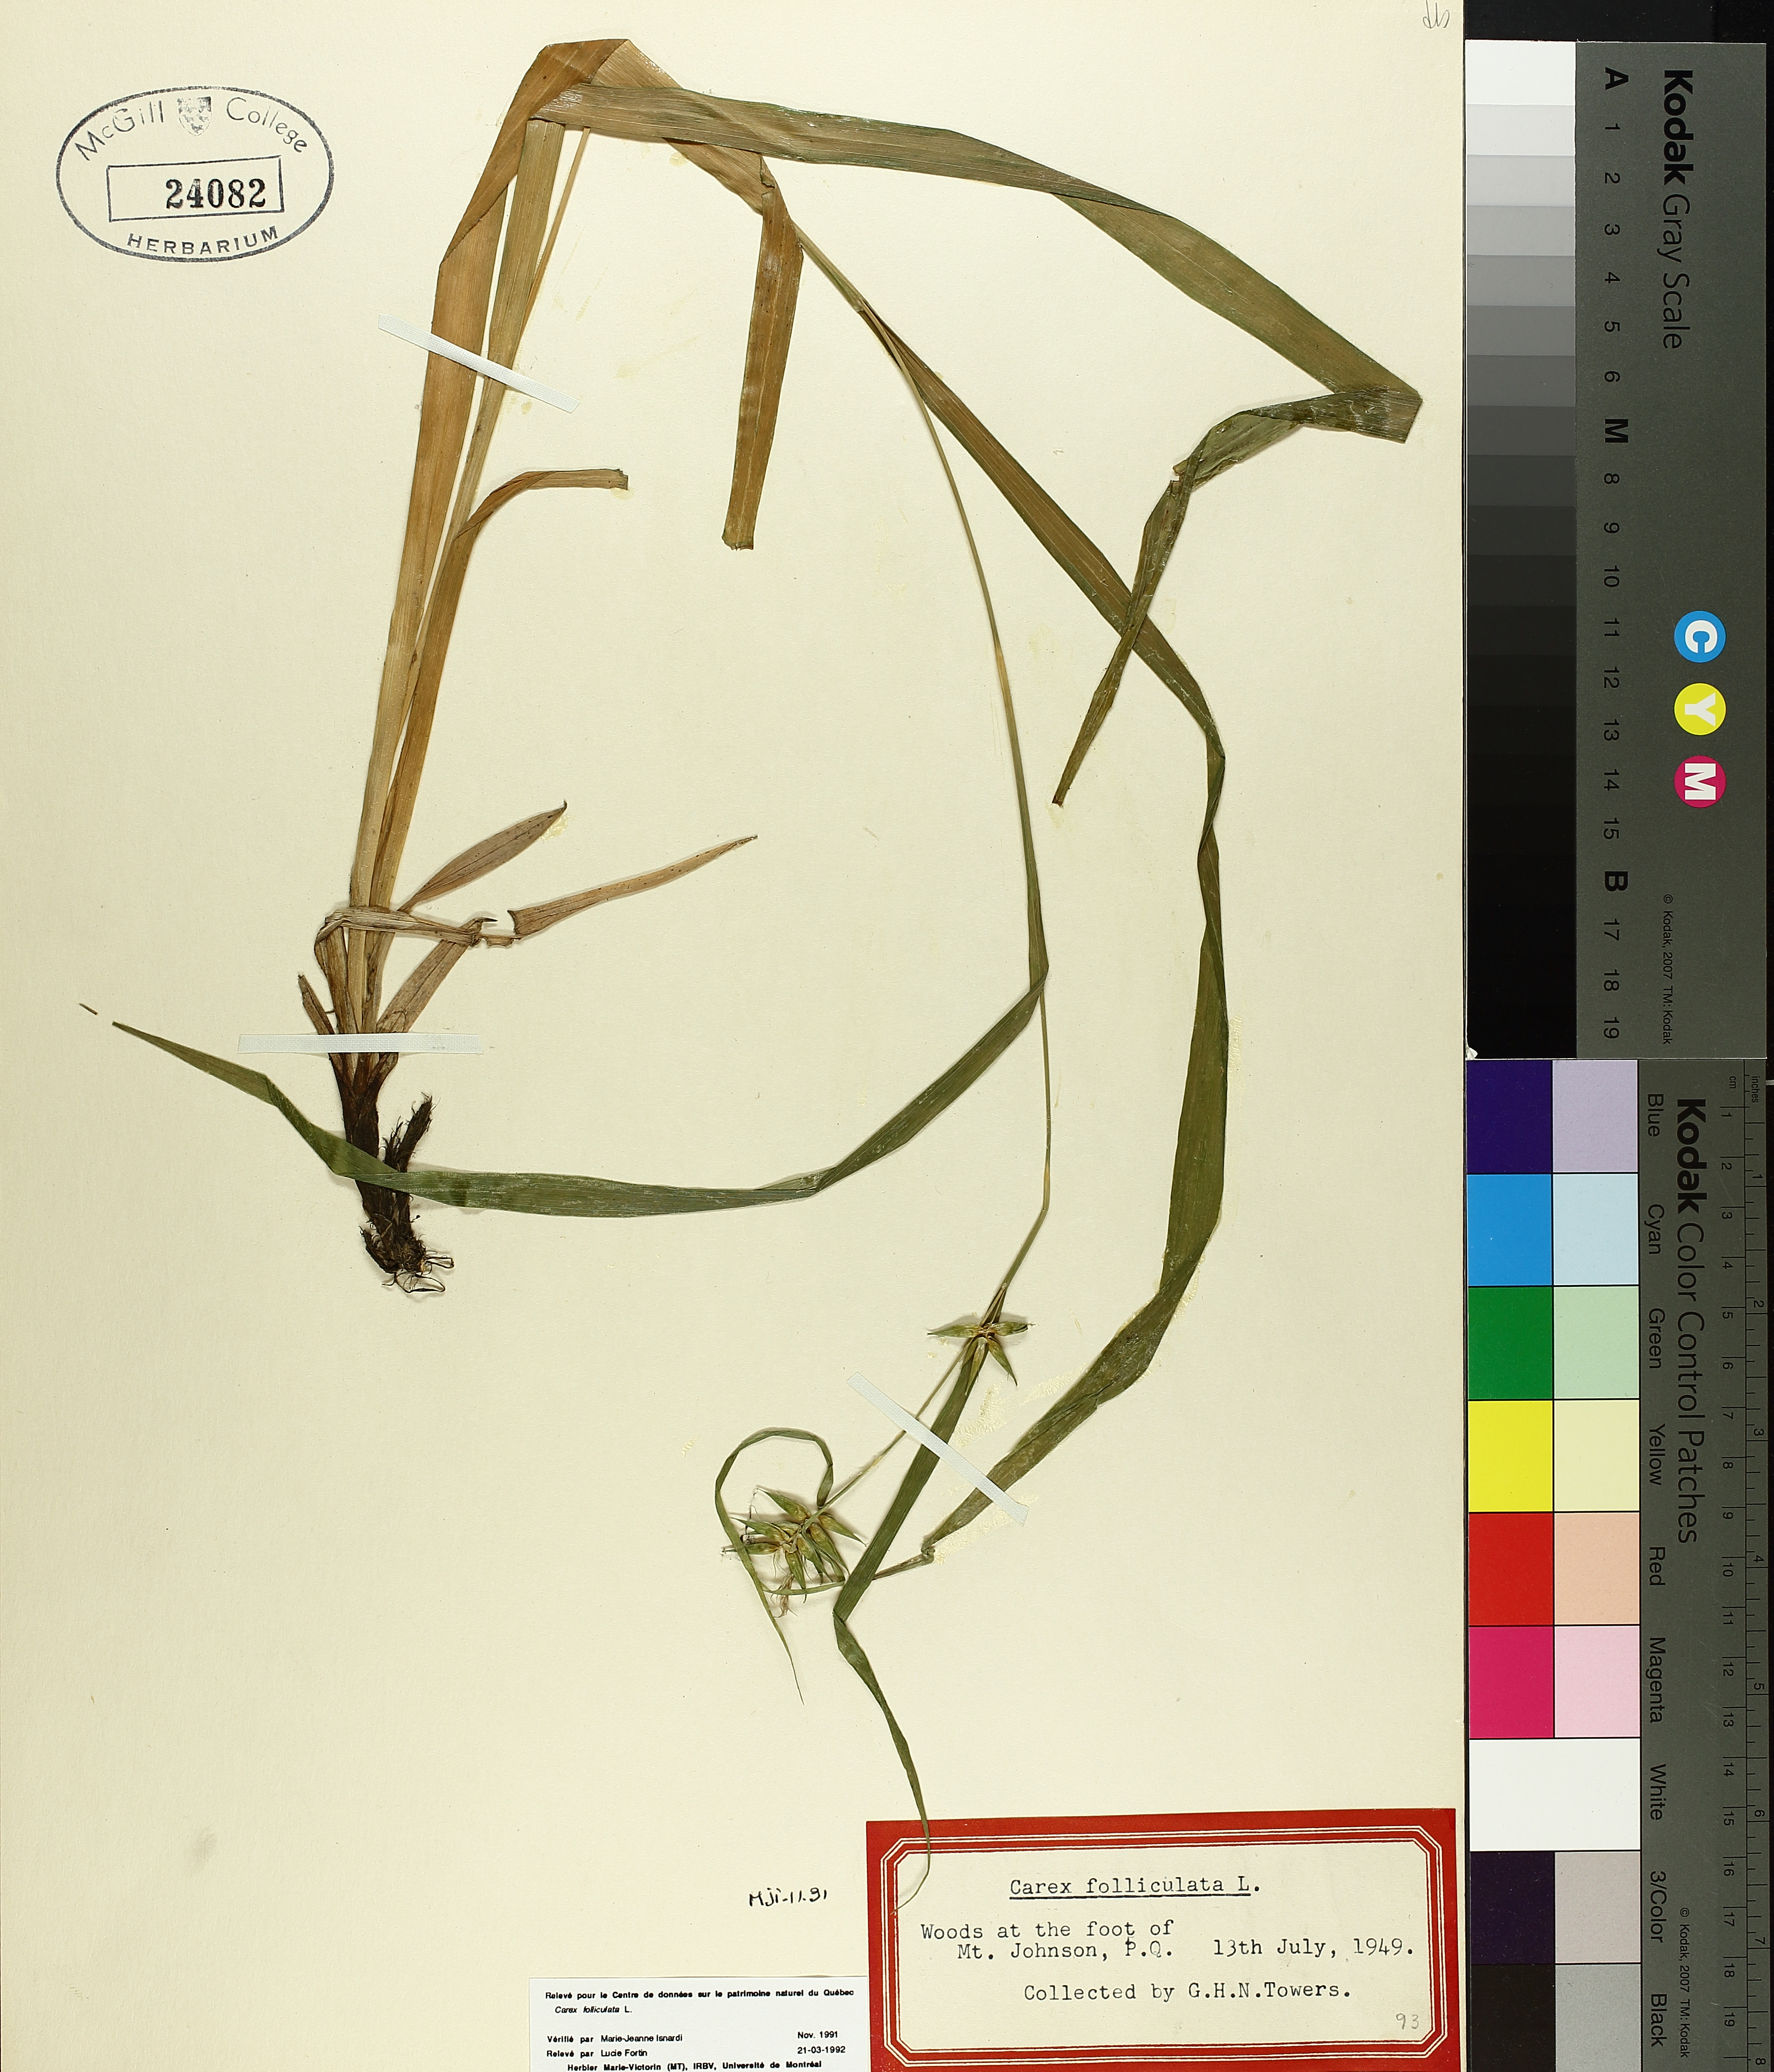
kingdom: Plantae
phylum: Tracheophyta
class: Liliopsida
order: Poales
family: Cyperaceae
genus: Carex
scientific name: Carex folliculata
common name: Northern long sedge
